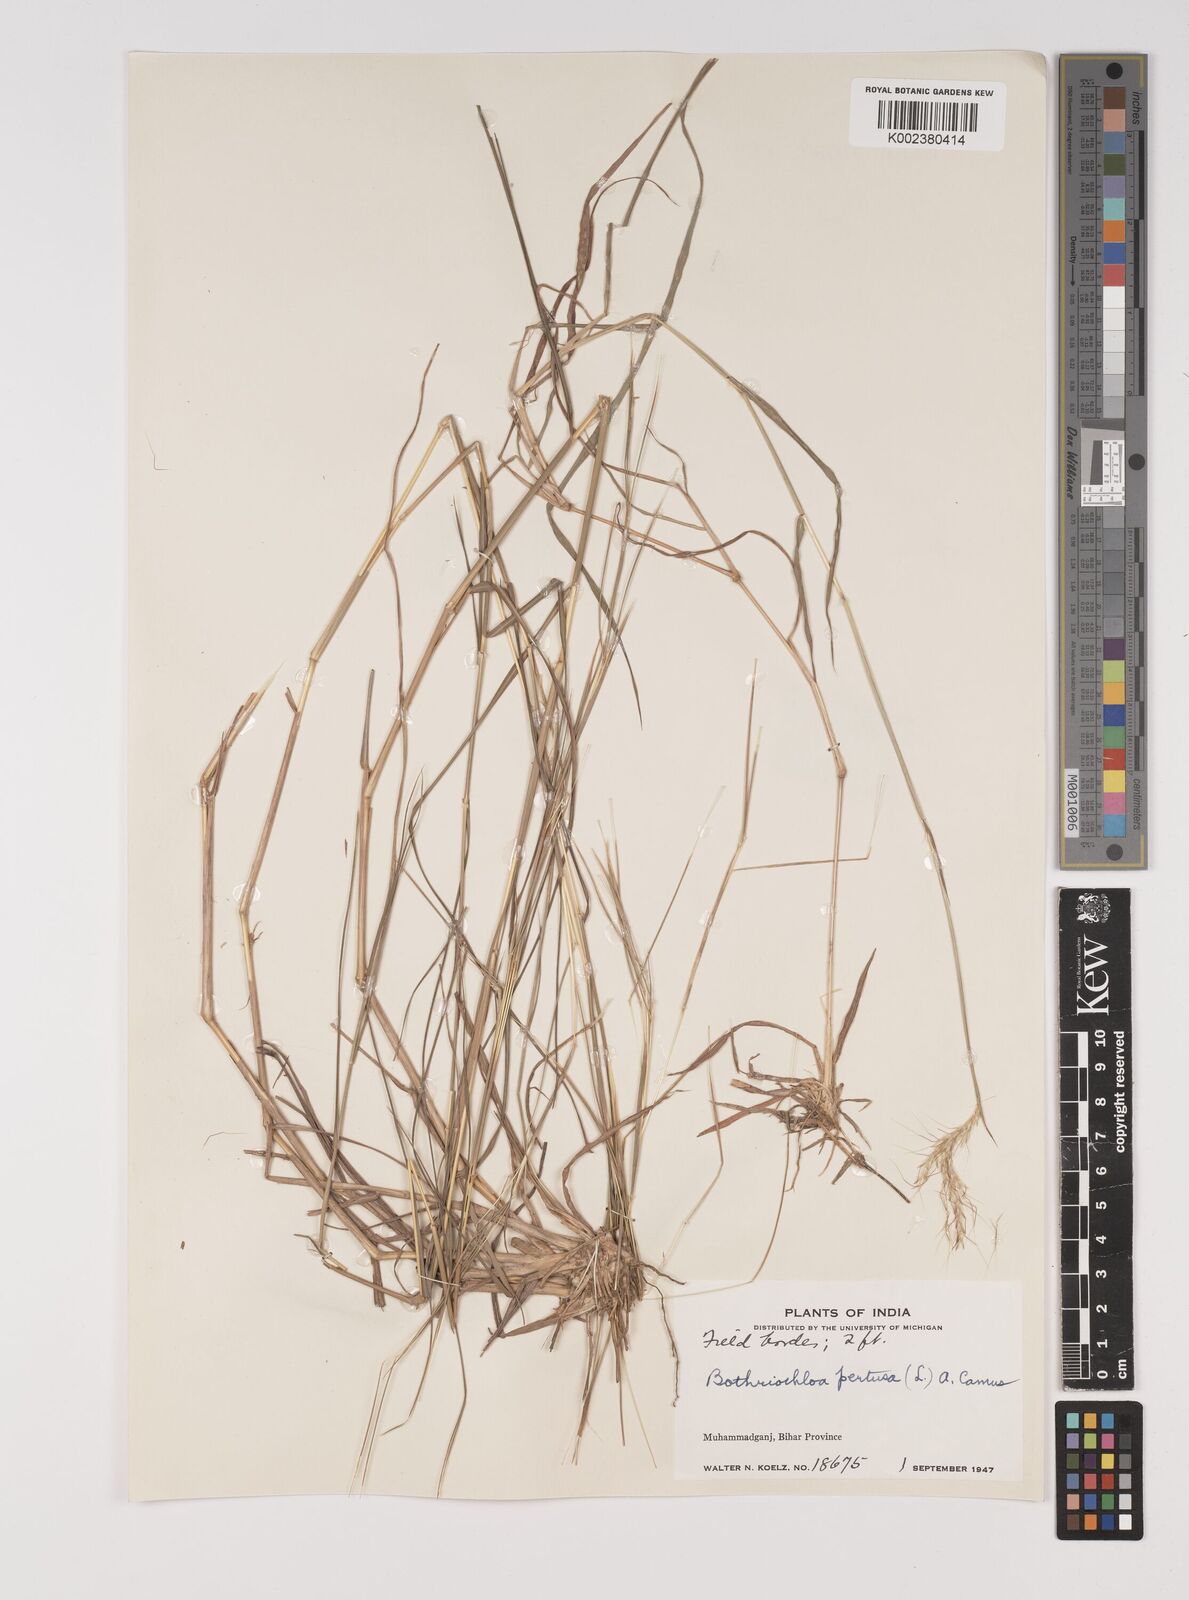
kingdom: Plantae
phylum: Tracheophyta
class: Liliopsida
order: Poales
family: Poaceae
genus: Bothriochloa
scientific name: Bothriochloa pertusa
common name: Pitted beardgrass
